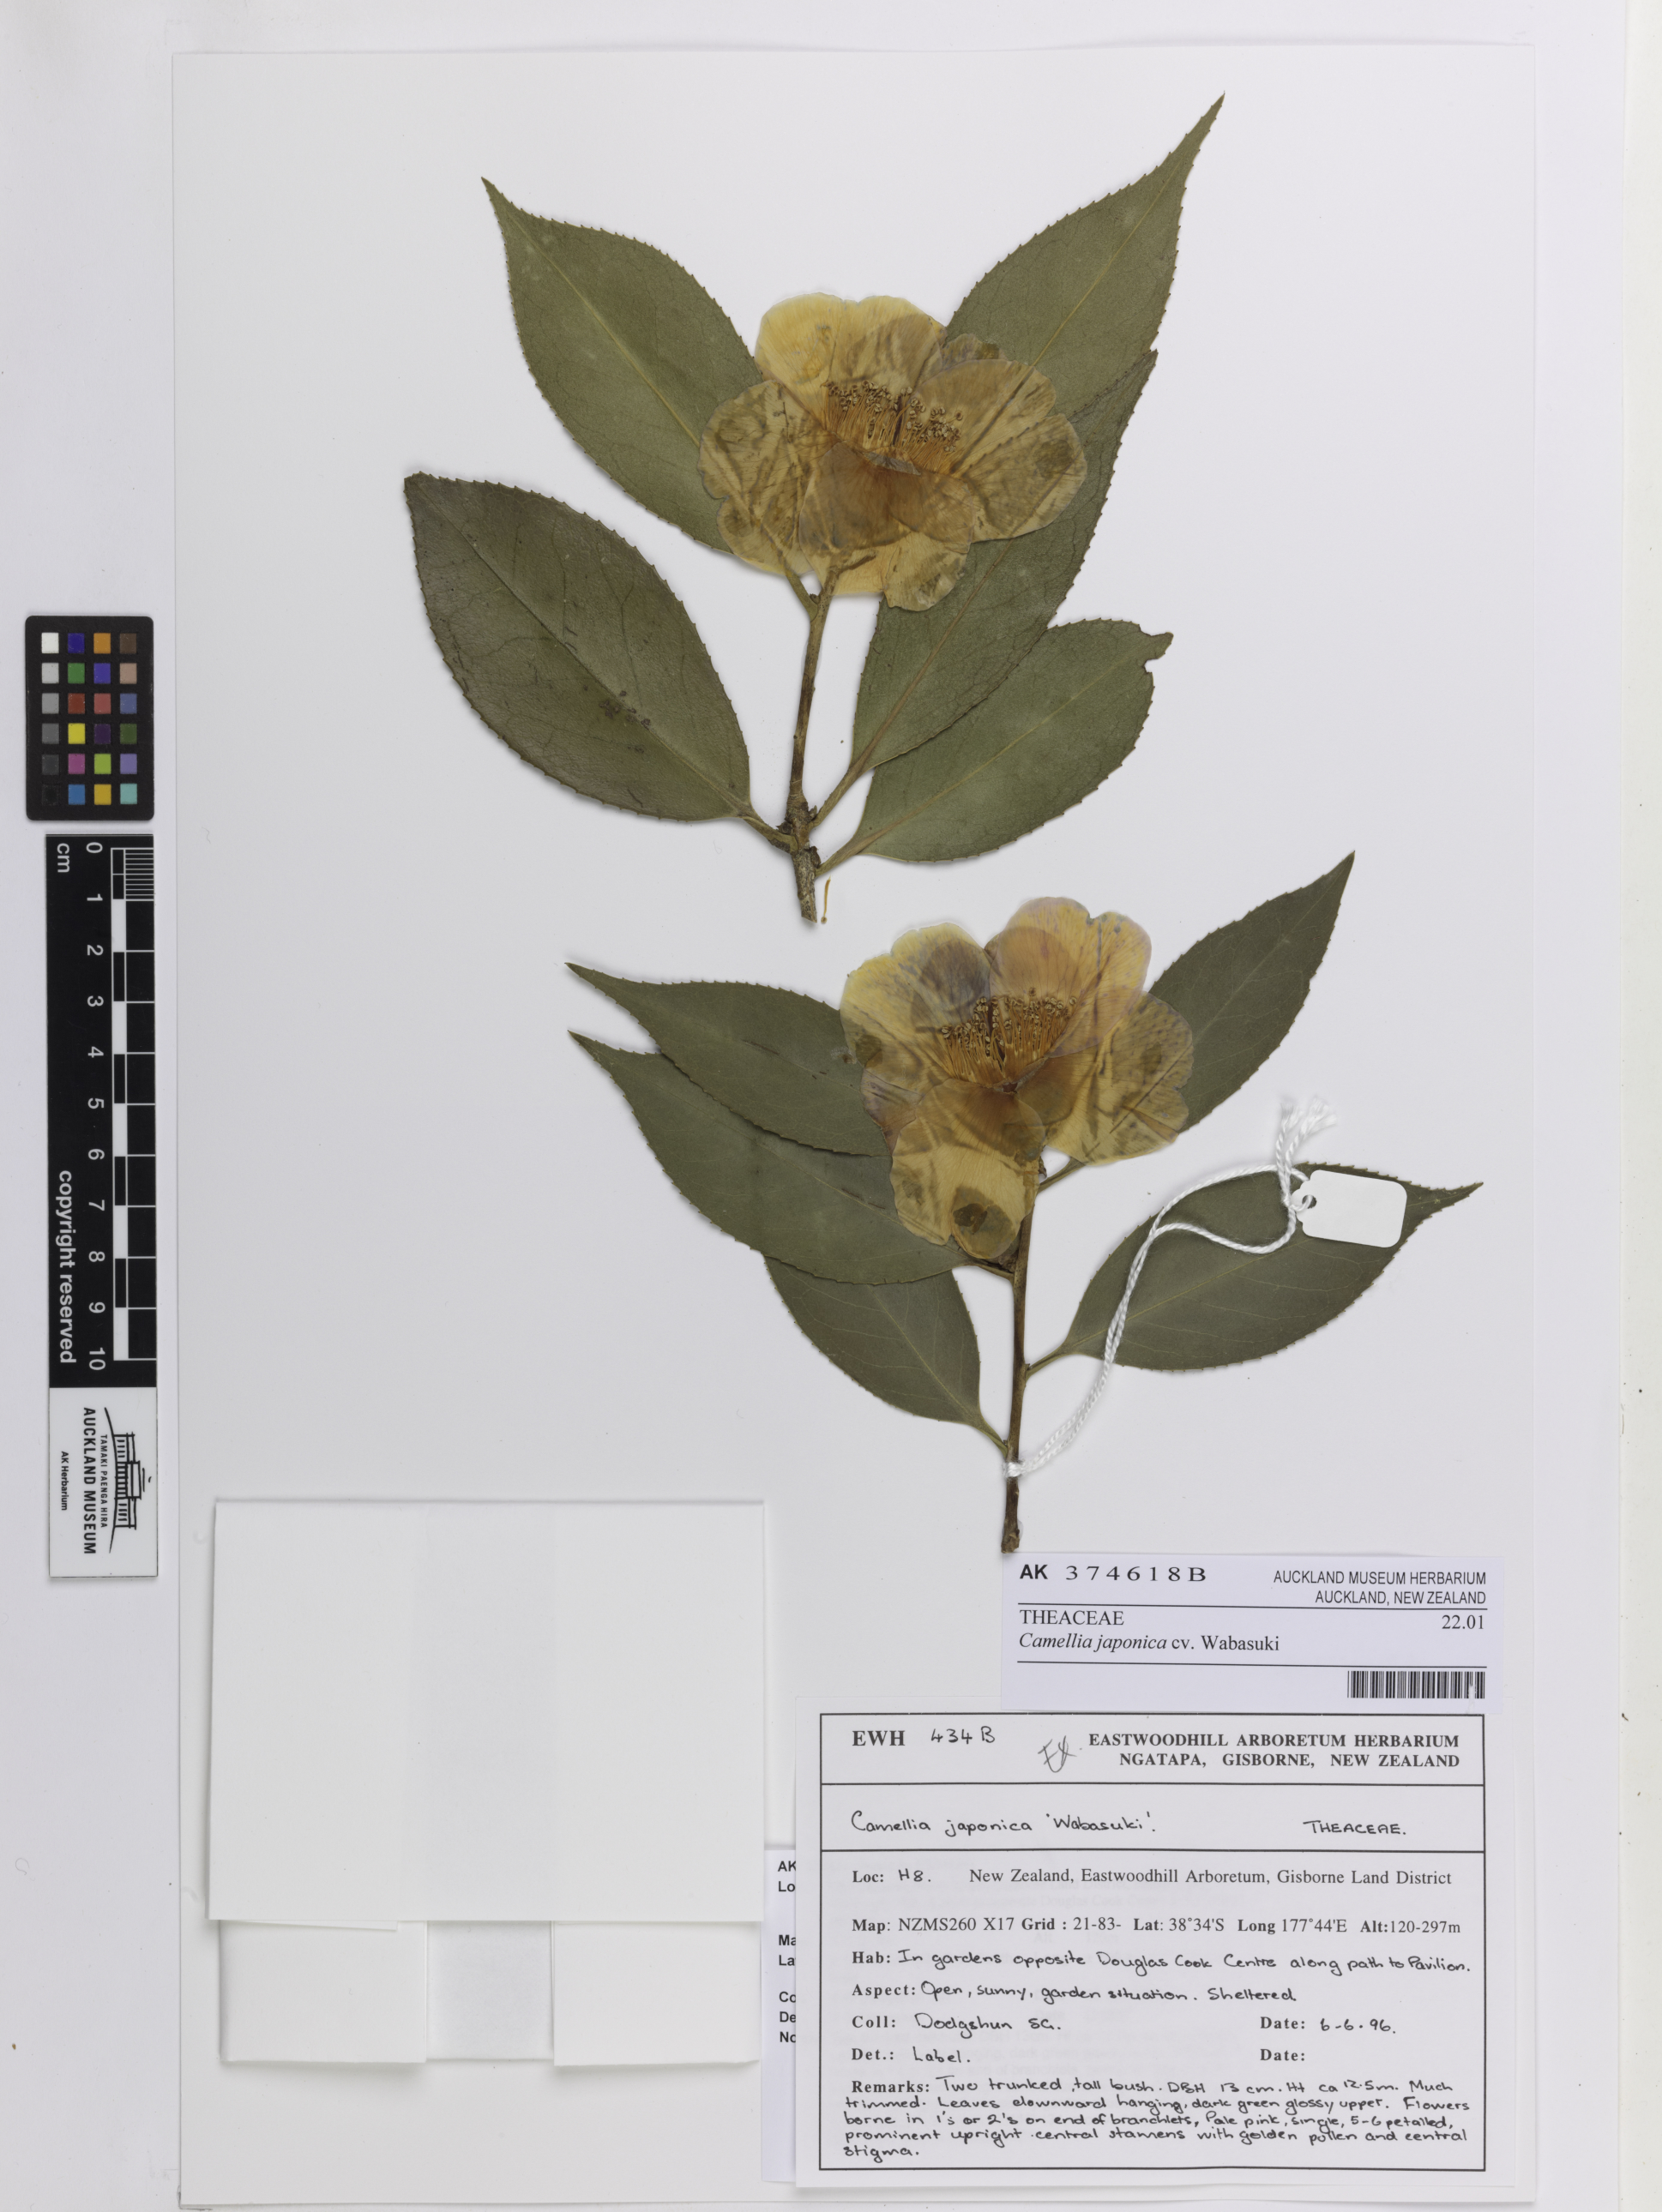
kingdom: Plantae
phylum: Tracheophyta
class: Magnoliopsida
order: Ericales
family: Theaceae
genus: Camellia
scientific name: Camellia japonica
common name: Camellia
